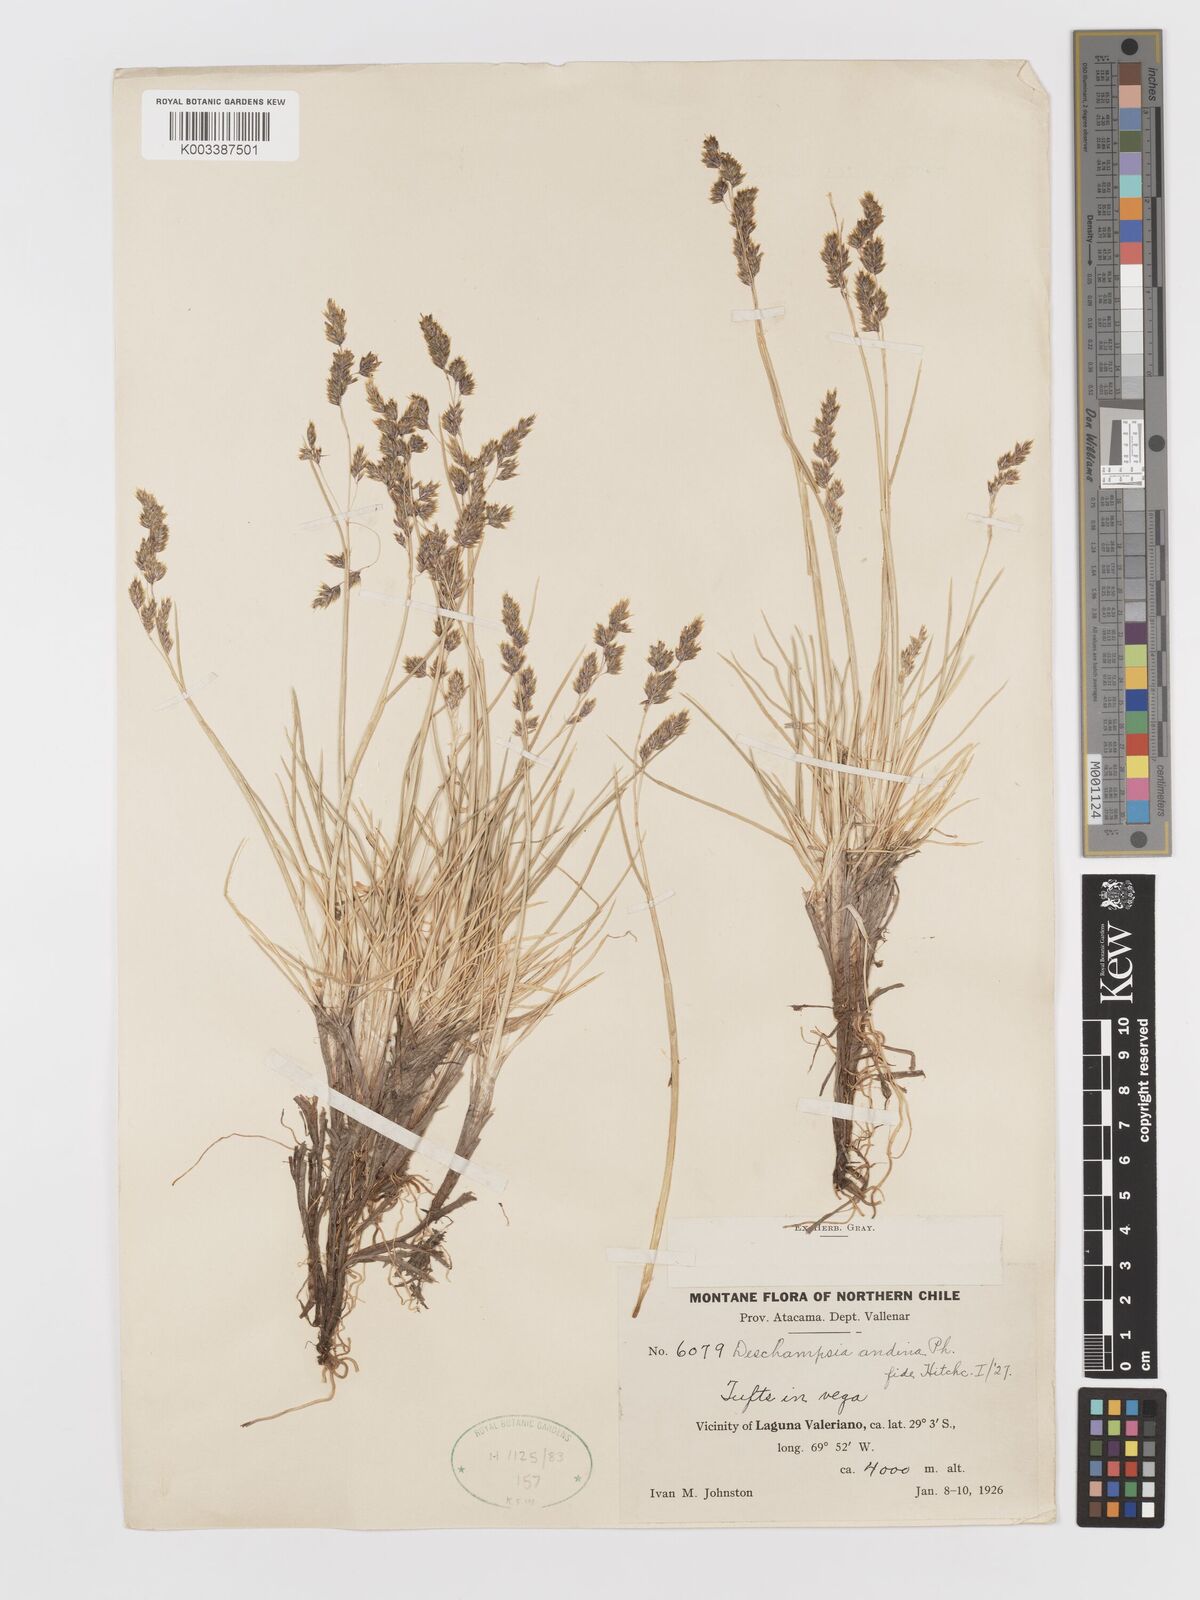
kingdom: Plantae
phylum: Tracheophyta
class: Liliopsida
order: Poales
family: Poaceae
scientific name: Poaceae
